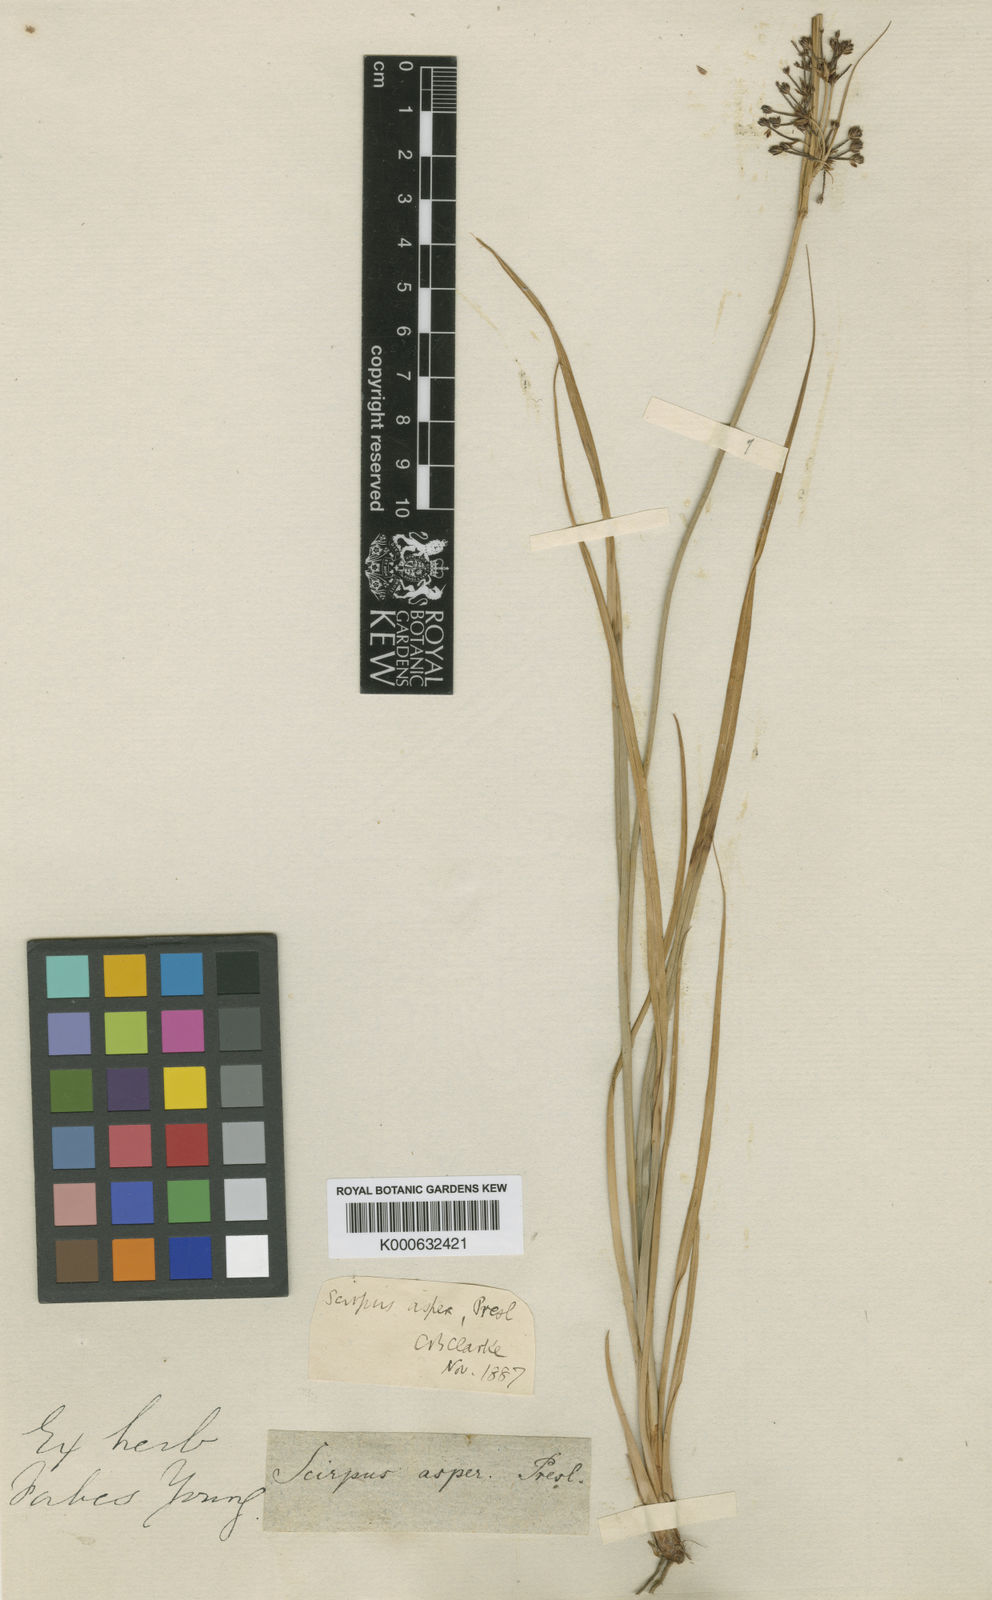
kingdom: Plantae
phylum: Tracheophyta
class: Liliopsida
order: Poales
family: Cyperaceae
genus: Rhodoscirpus
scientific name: Rhodoscirpus asper
